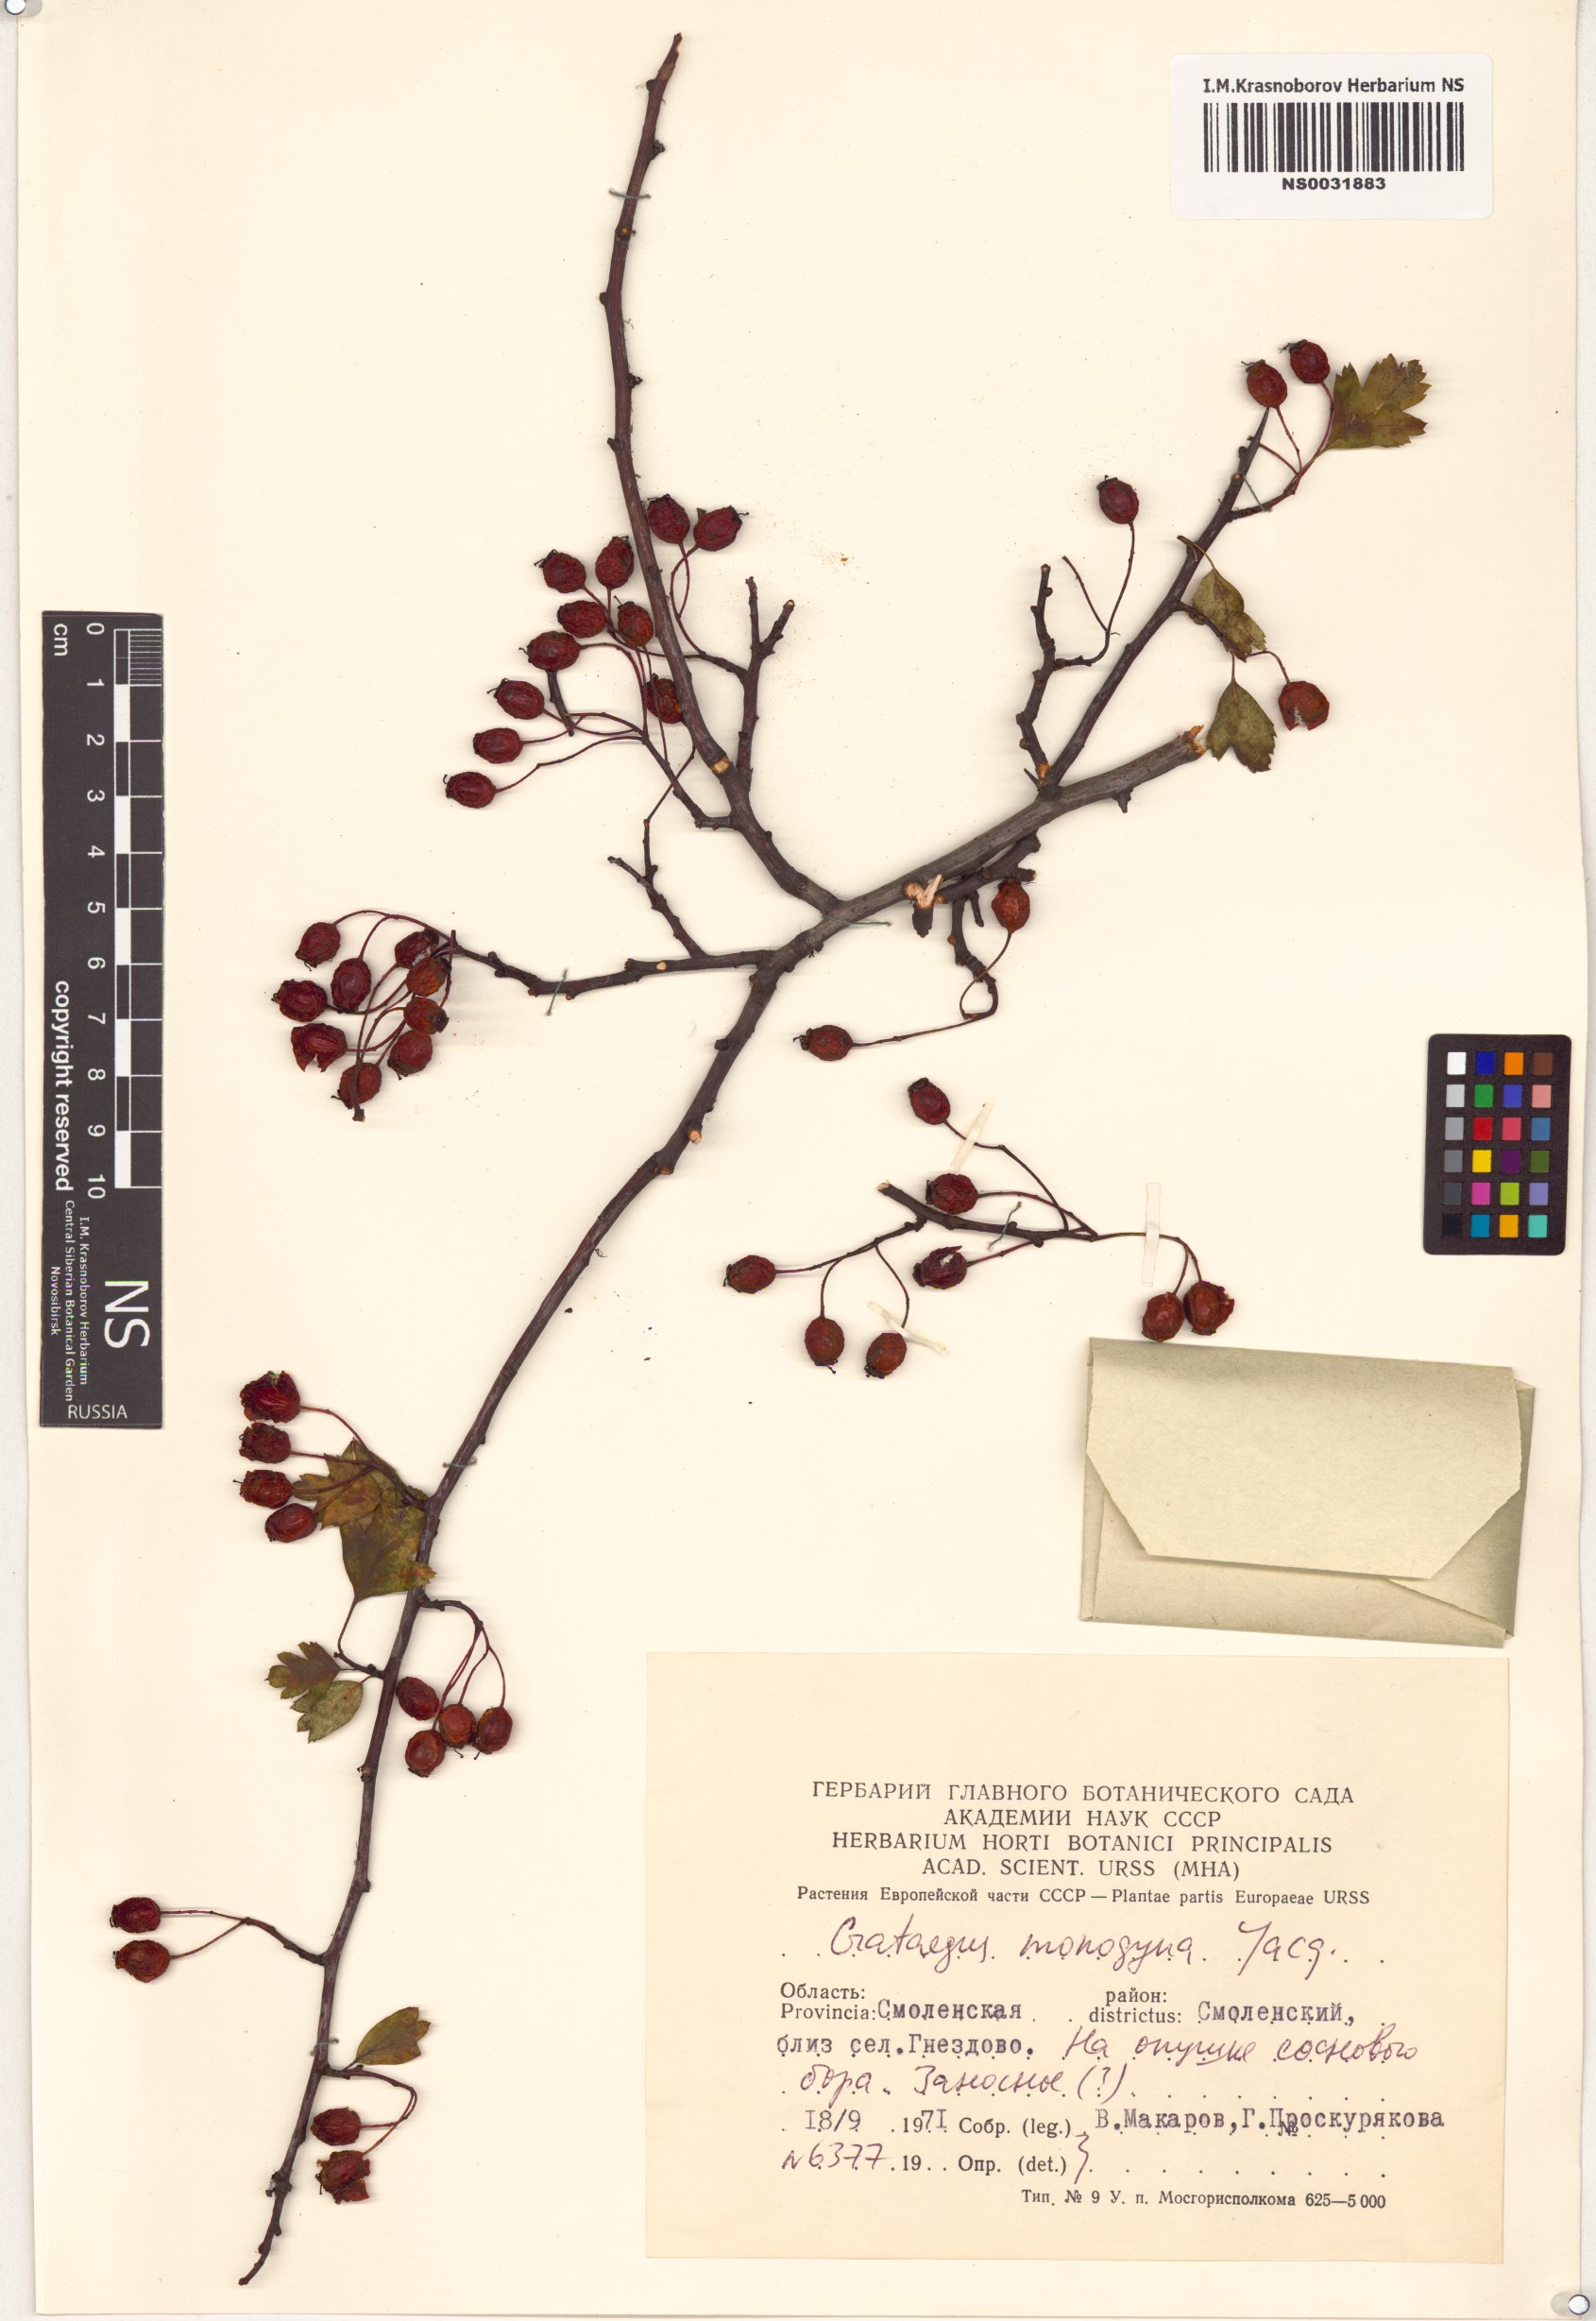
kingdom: Plantae
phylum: Tracheophyta
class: Magnoliopsida
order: Rosales
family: Rosaceae
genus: Crataegus
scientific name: Crataegus monogyna
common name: Hawthorn
